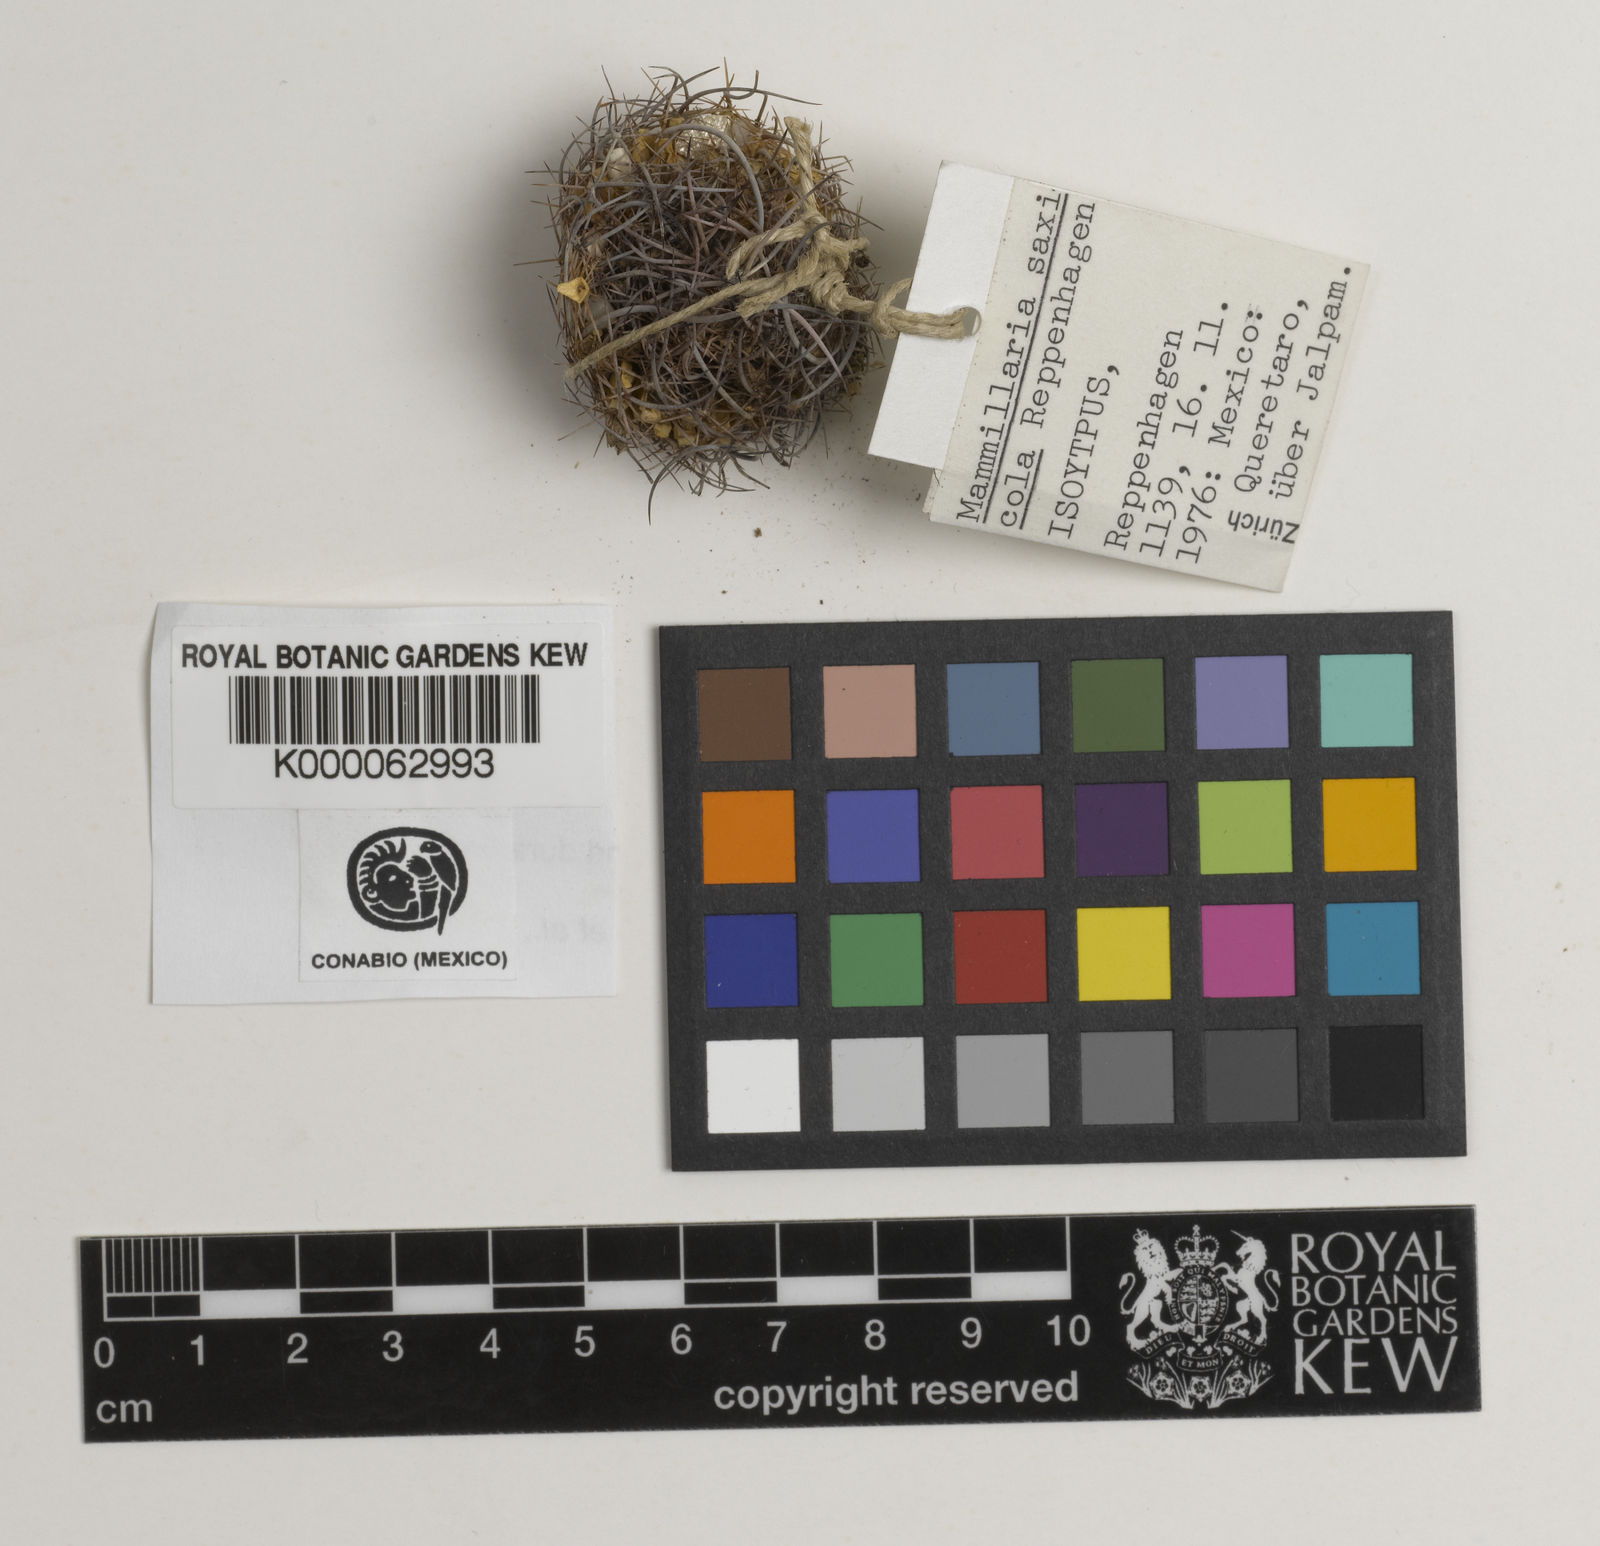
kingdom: Plantae
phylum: Tracheophyta
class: Magnoliopsida
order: Caryophyllales
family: Cactaceae
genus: Mammillaria
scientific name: Mammillaria magnimamma
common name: Mexican pincushion
